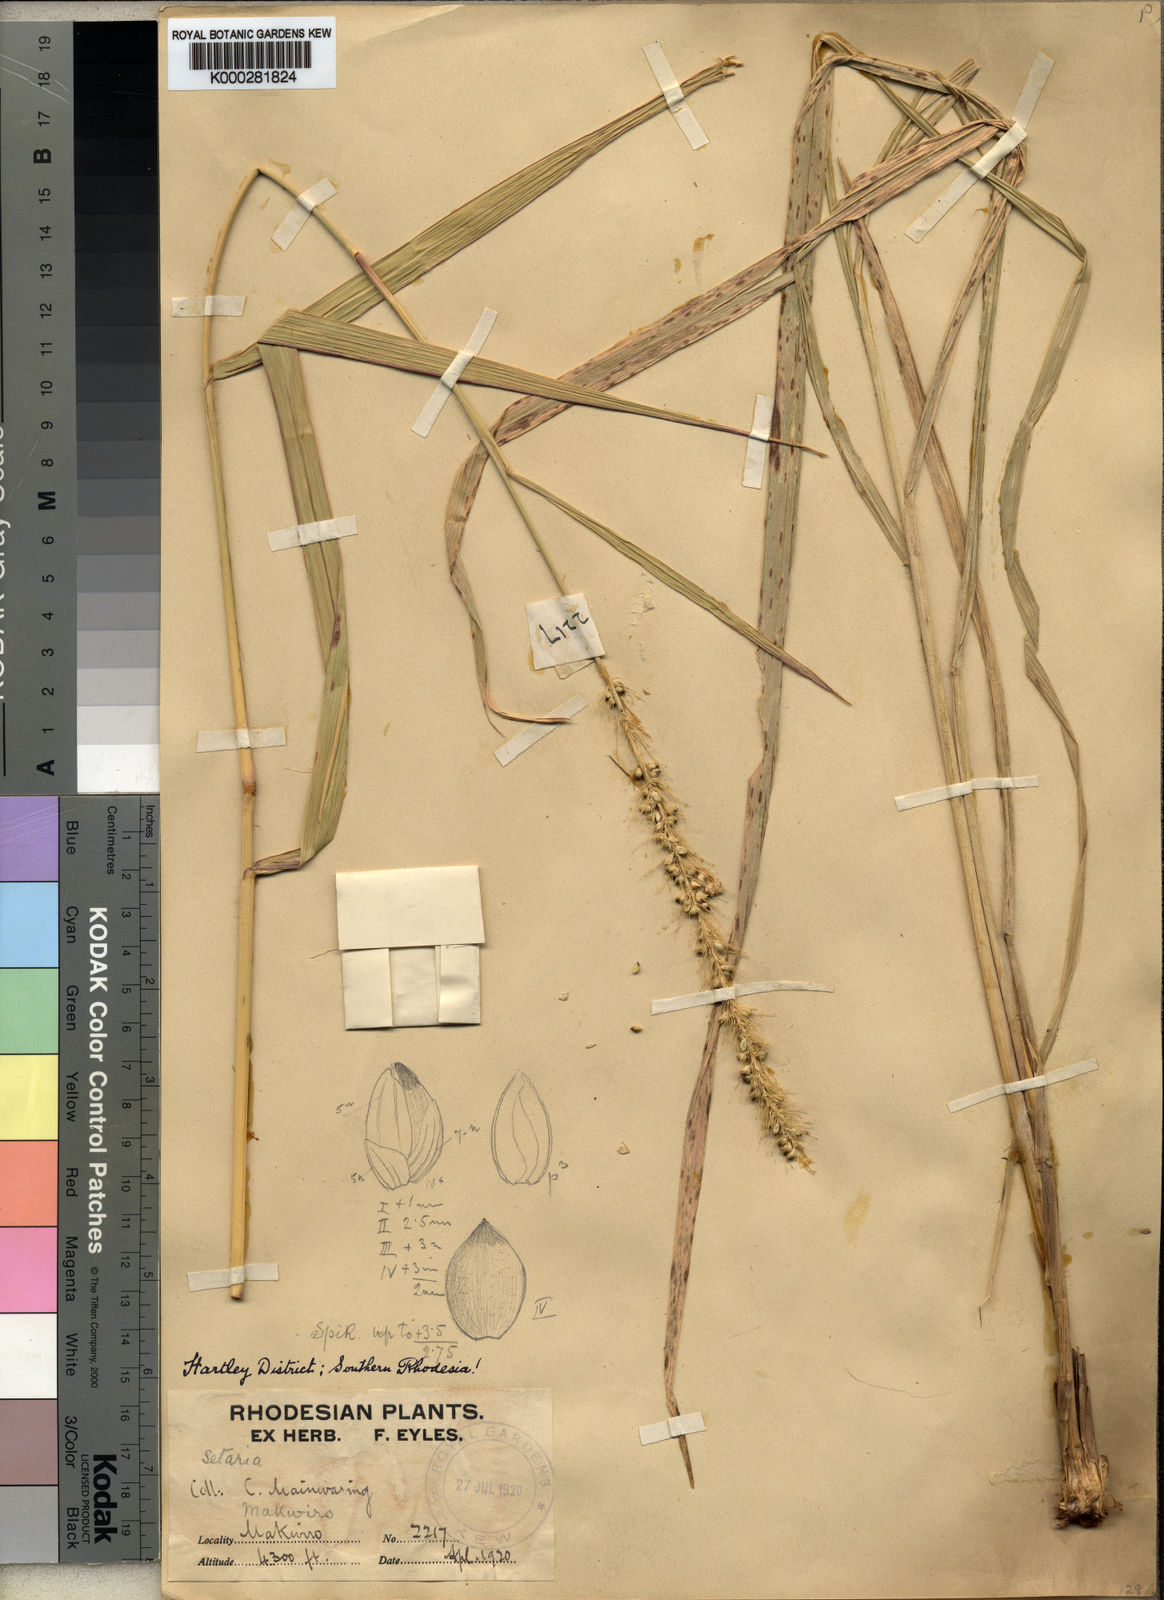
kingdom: Plantae
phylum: Tracheophyta
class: Liliopsida
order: Poales
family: Poaceae
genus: Setaria
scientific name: Setaria incrassata
